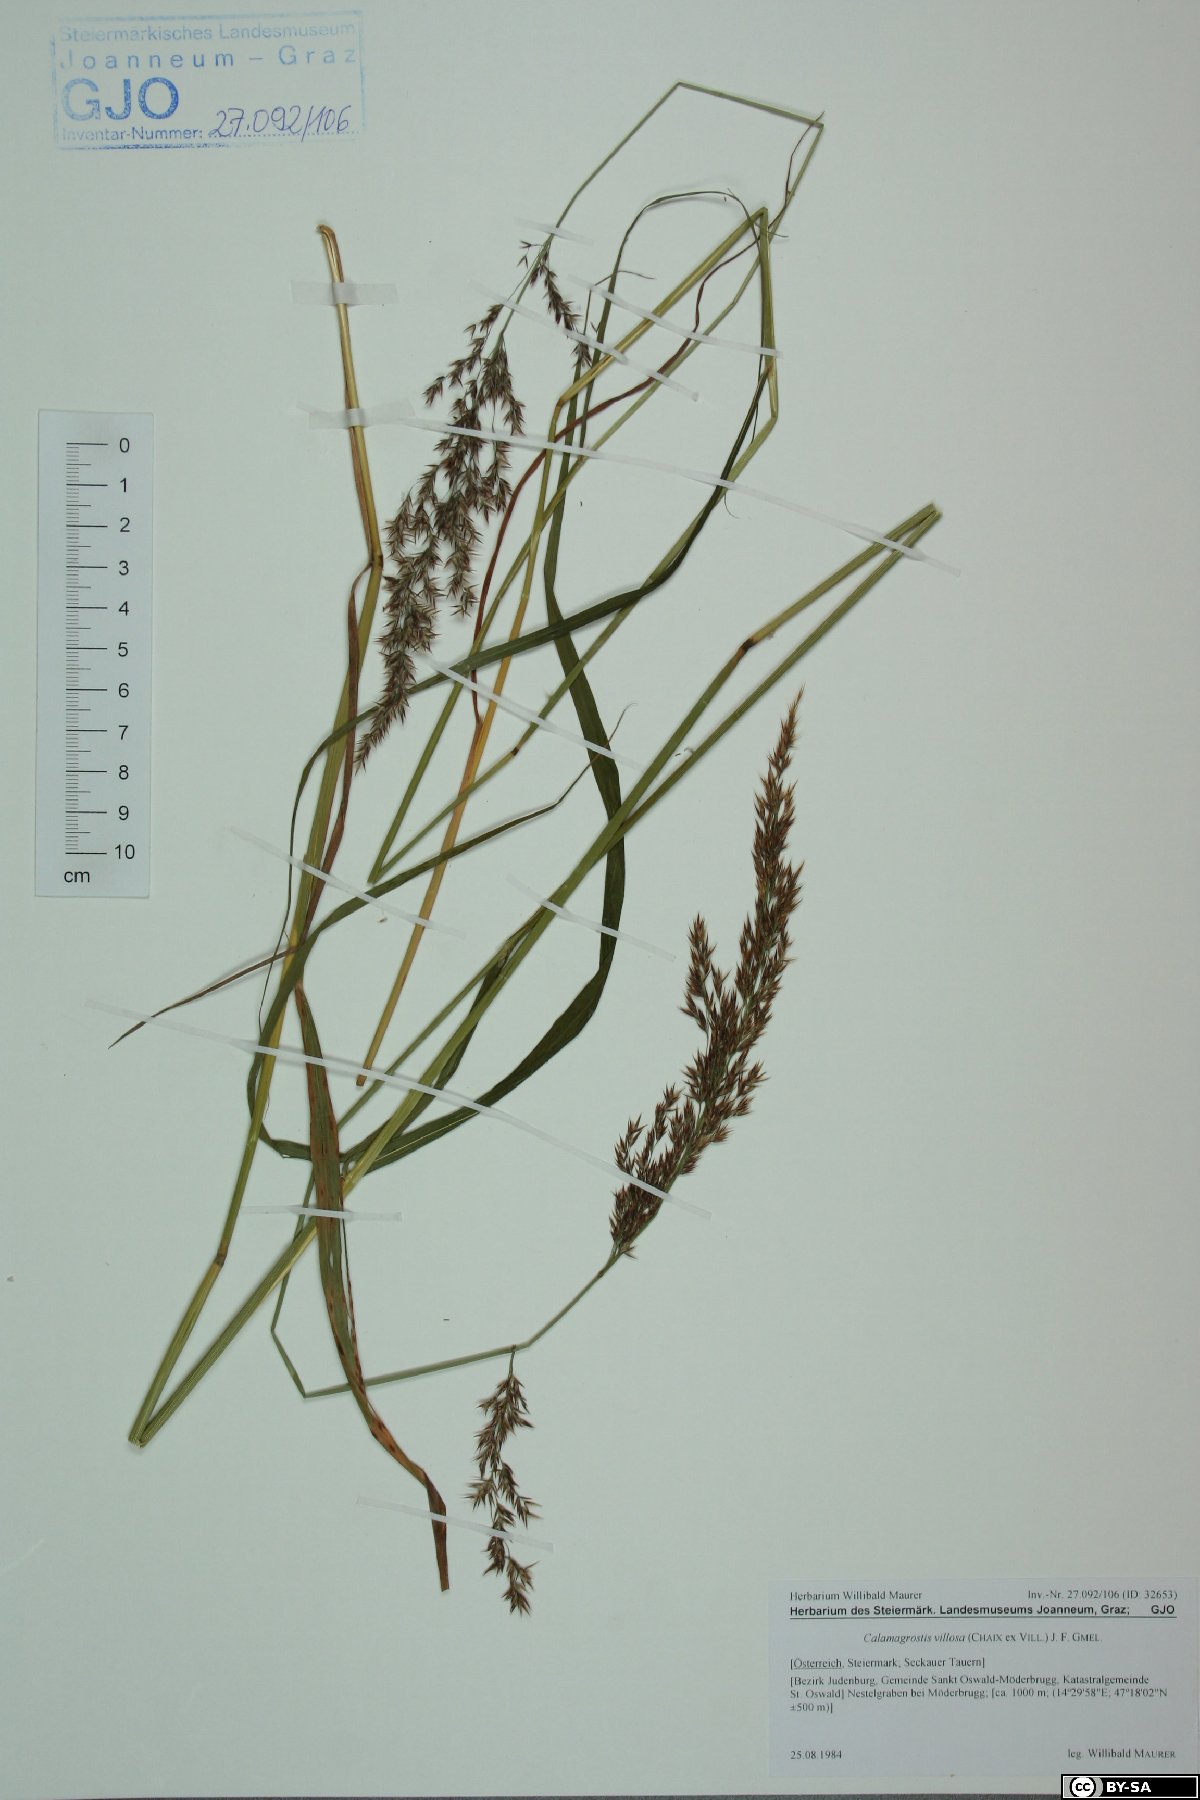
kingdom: Plantae
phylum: Tracheophyta
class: Liliopsida
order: Poales
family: Poaceae
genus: Calamagrostis
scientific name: Calamagrostis villosa
